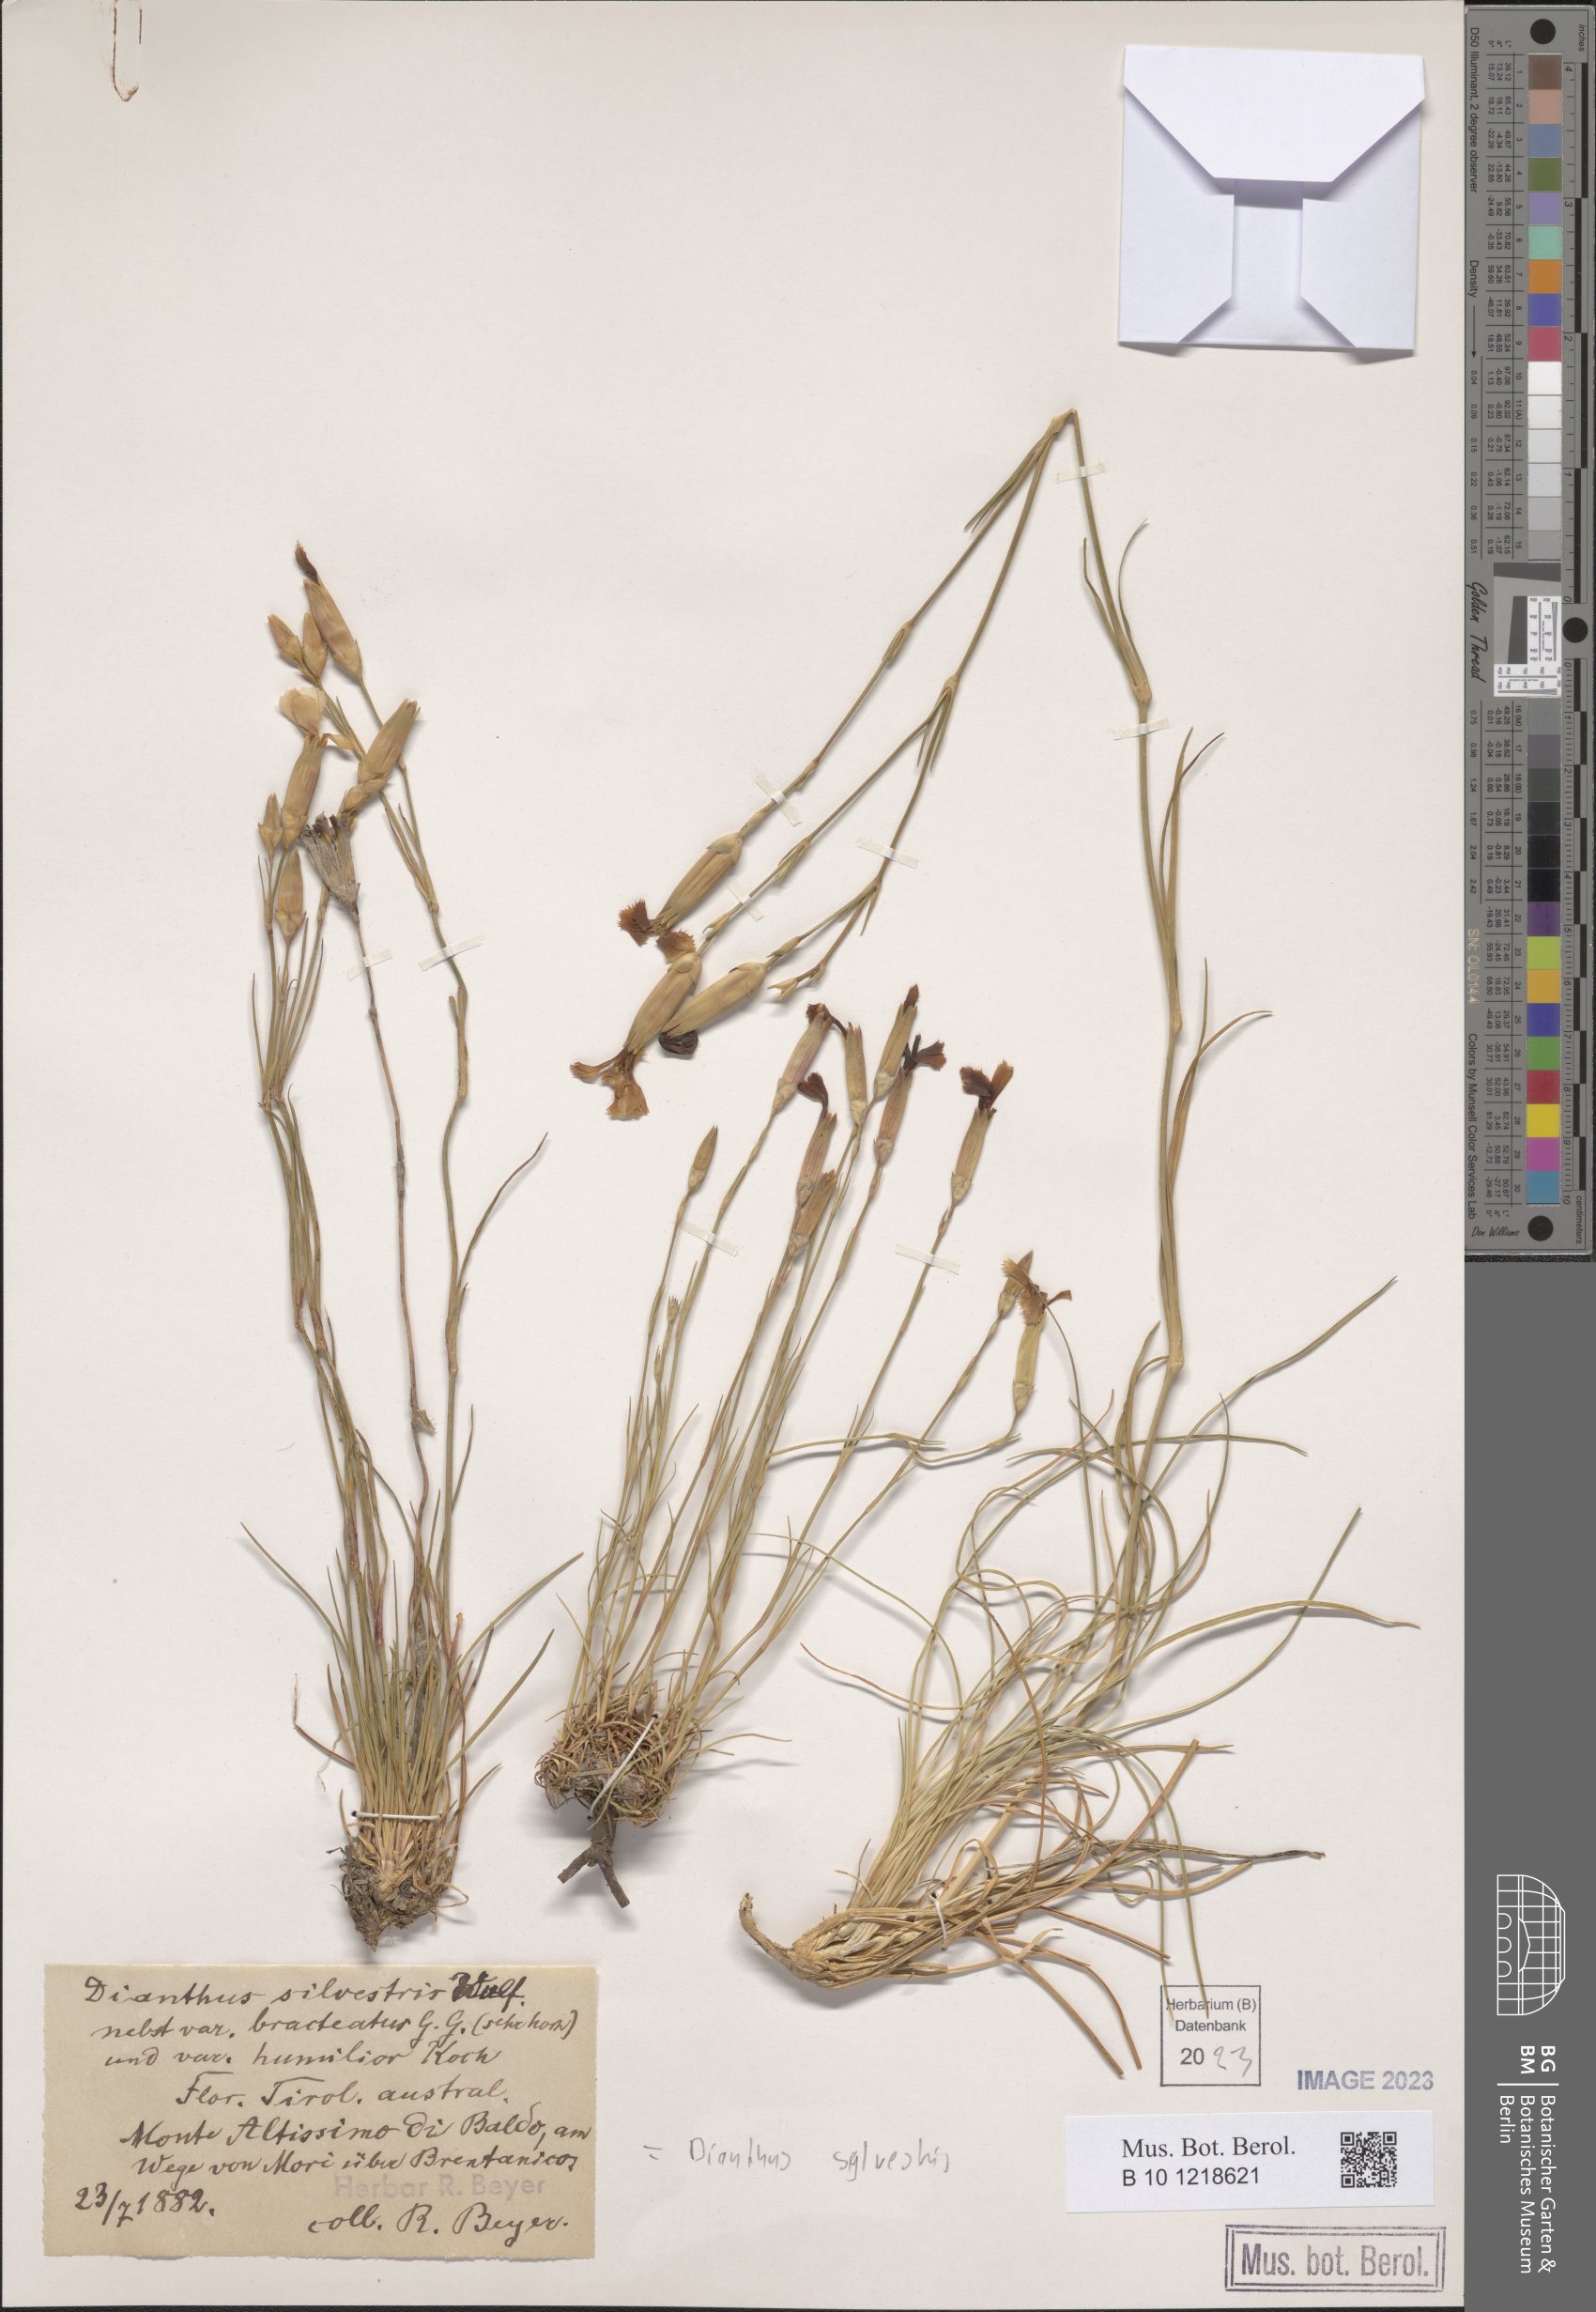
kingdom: Plantae
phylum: Tracheophyta
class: Magnoliopsida
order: Caryophyllales
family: Caryophyllaceae
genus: Dianthus
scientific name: Dianthus sylvestris
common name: Wood pink
